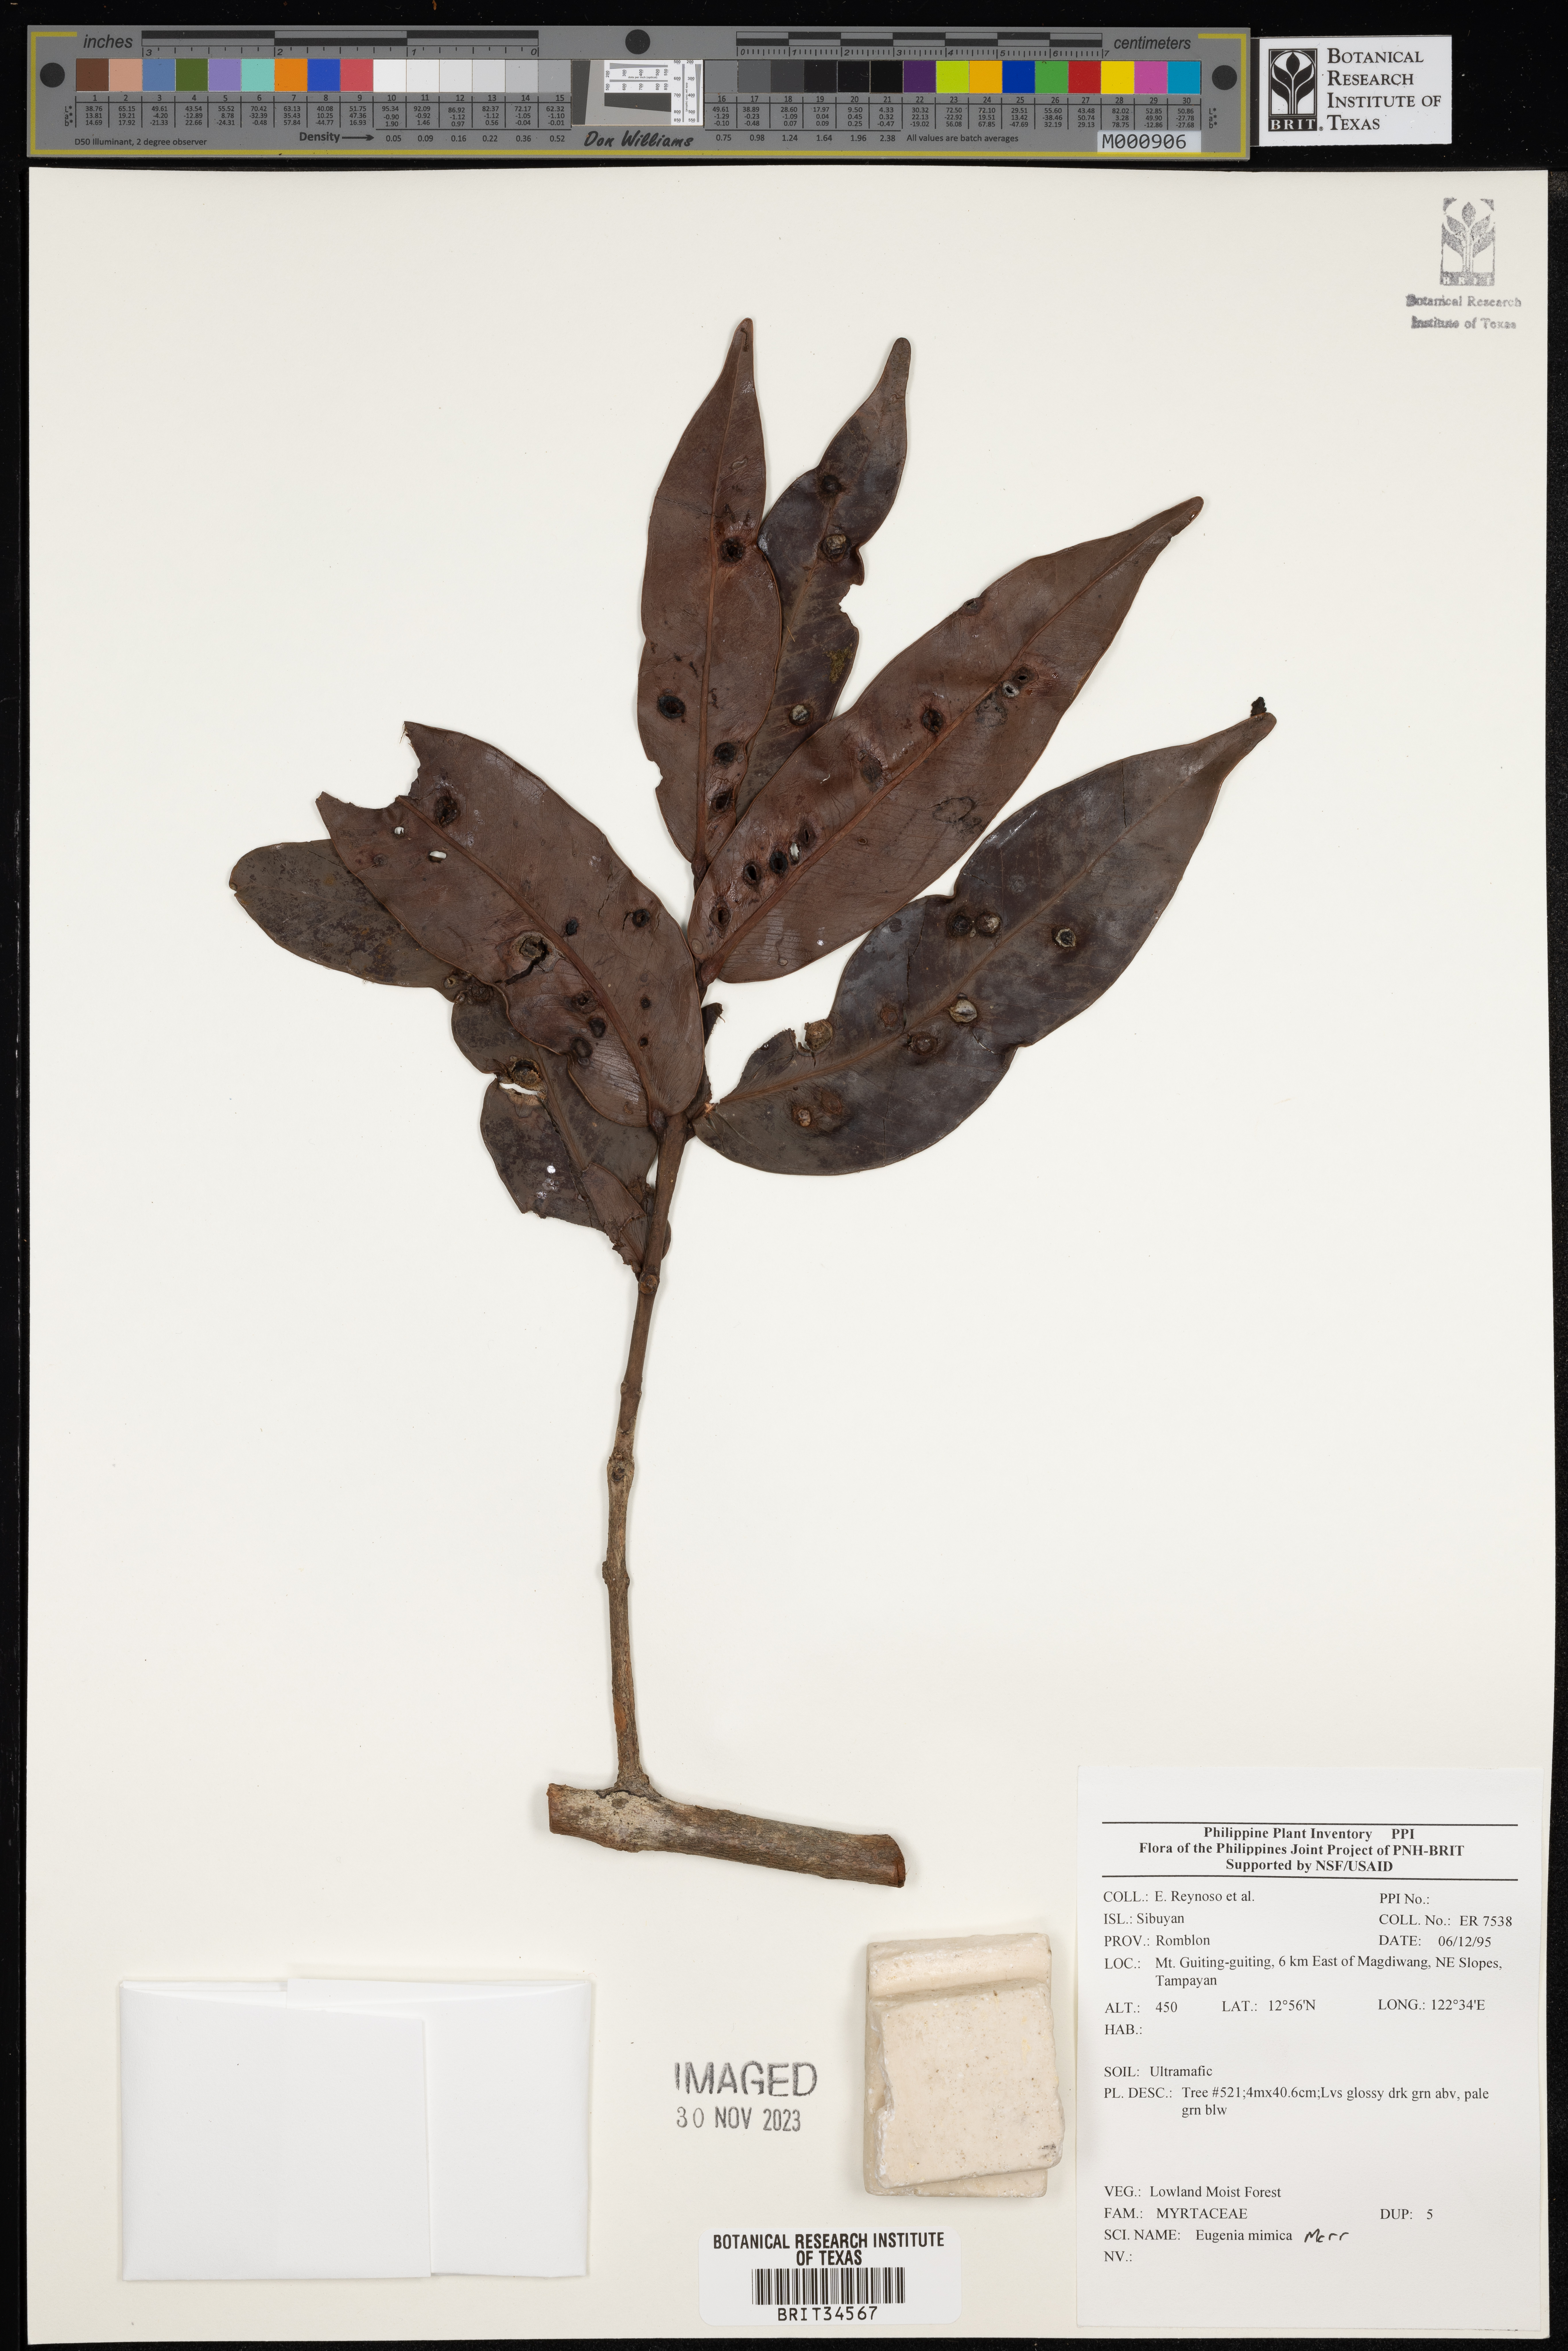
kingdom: Plantae
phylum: Tracheophyta
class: Magnoliopsida
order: Myrtales
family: Myrtaceae
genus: Eugenia
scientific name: Eugenia
